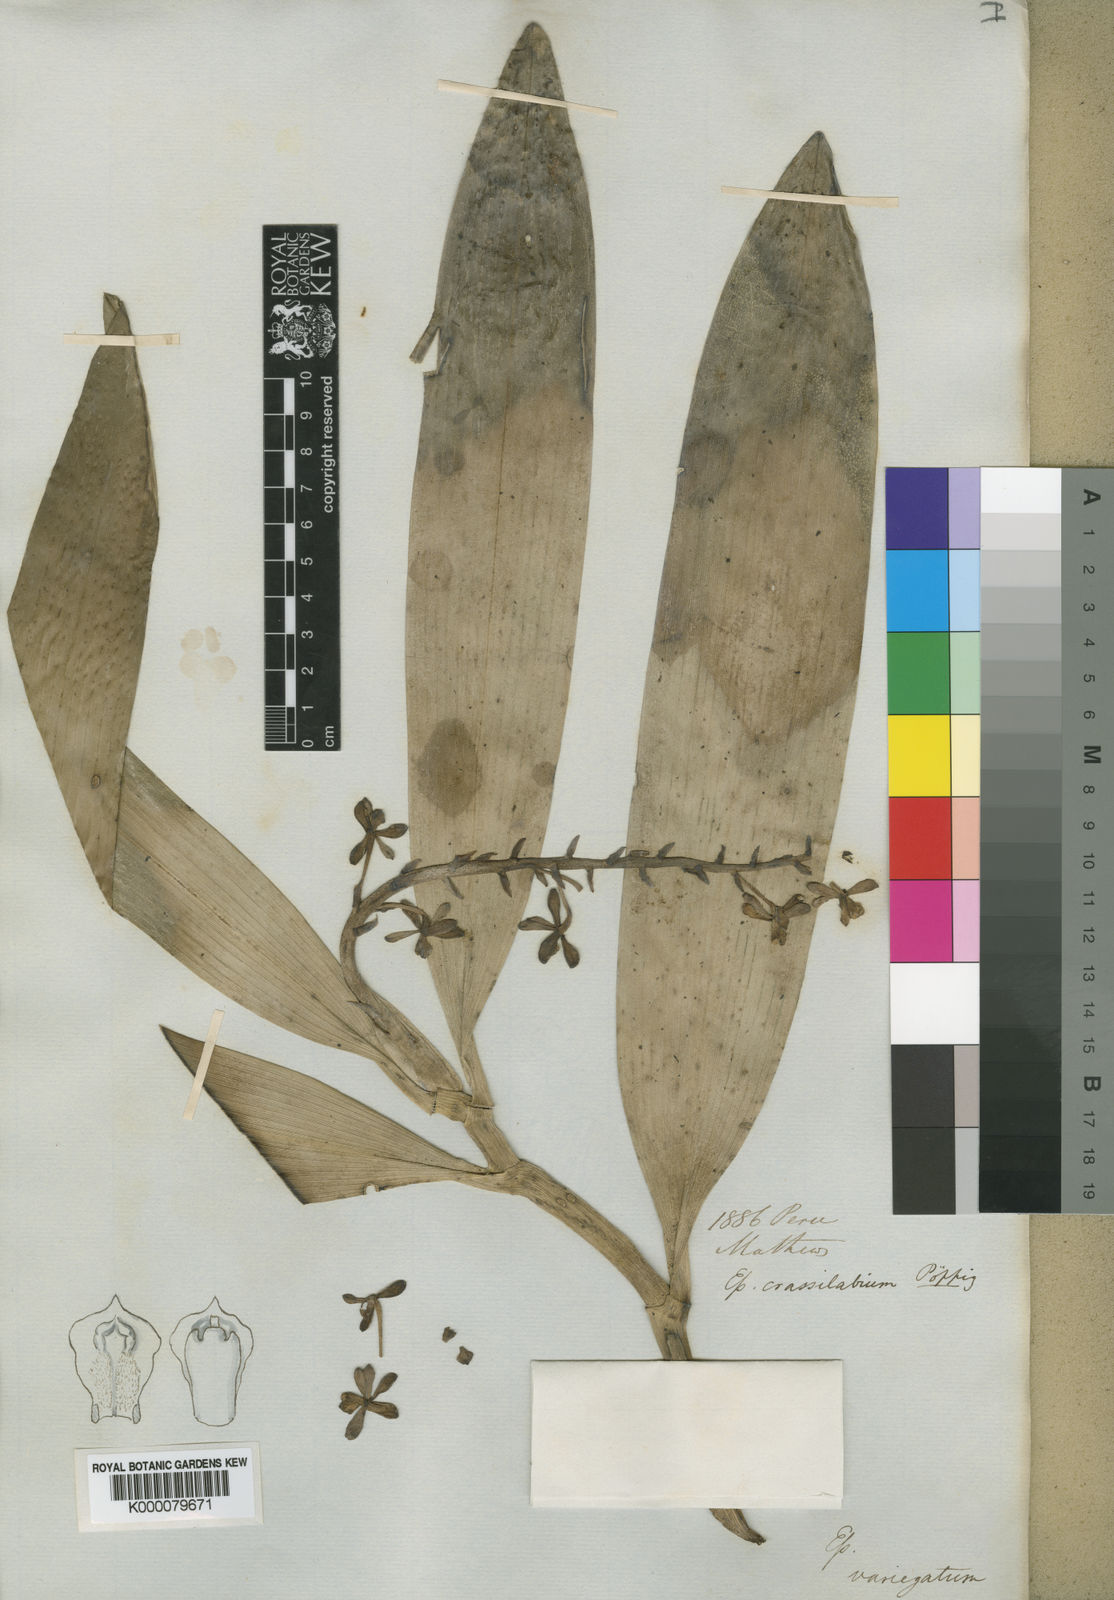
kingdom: Plantae
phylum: Tracheophyta
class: Liliopsida
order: Asparagales
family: Orchidaceae
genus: Prosthechea
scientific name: Prosthechea pachysepala
